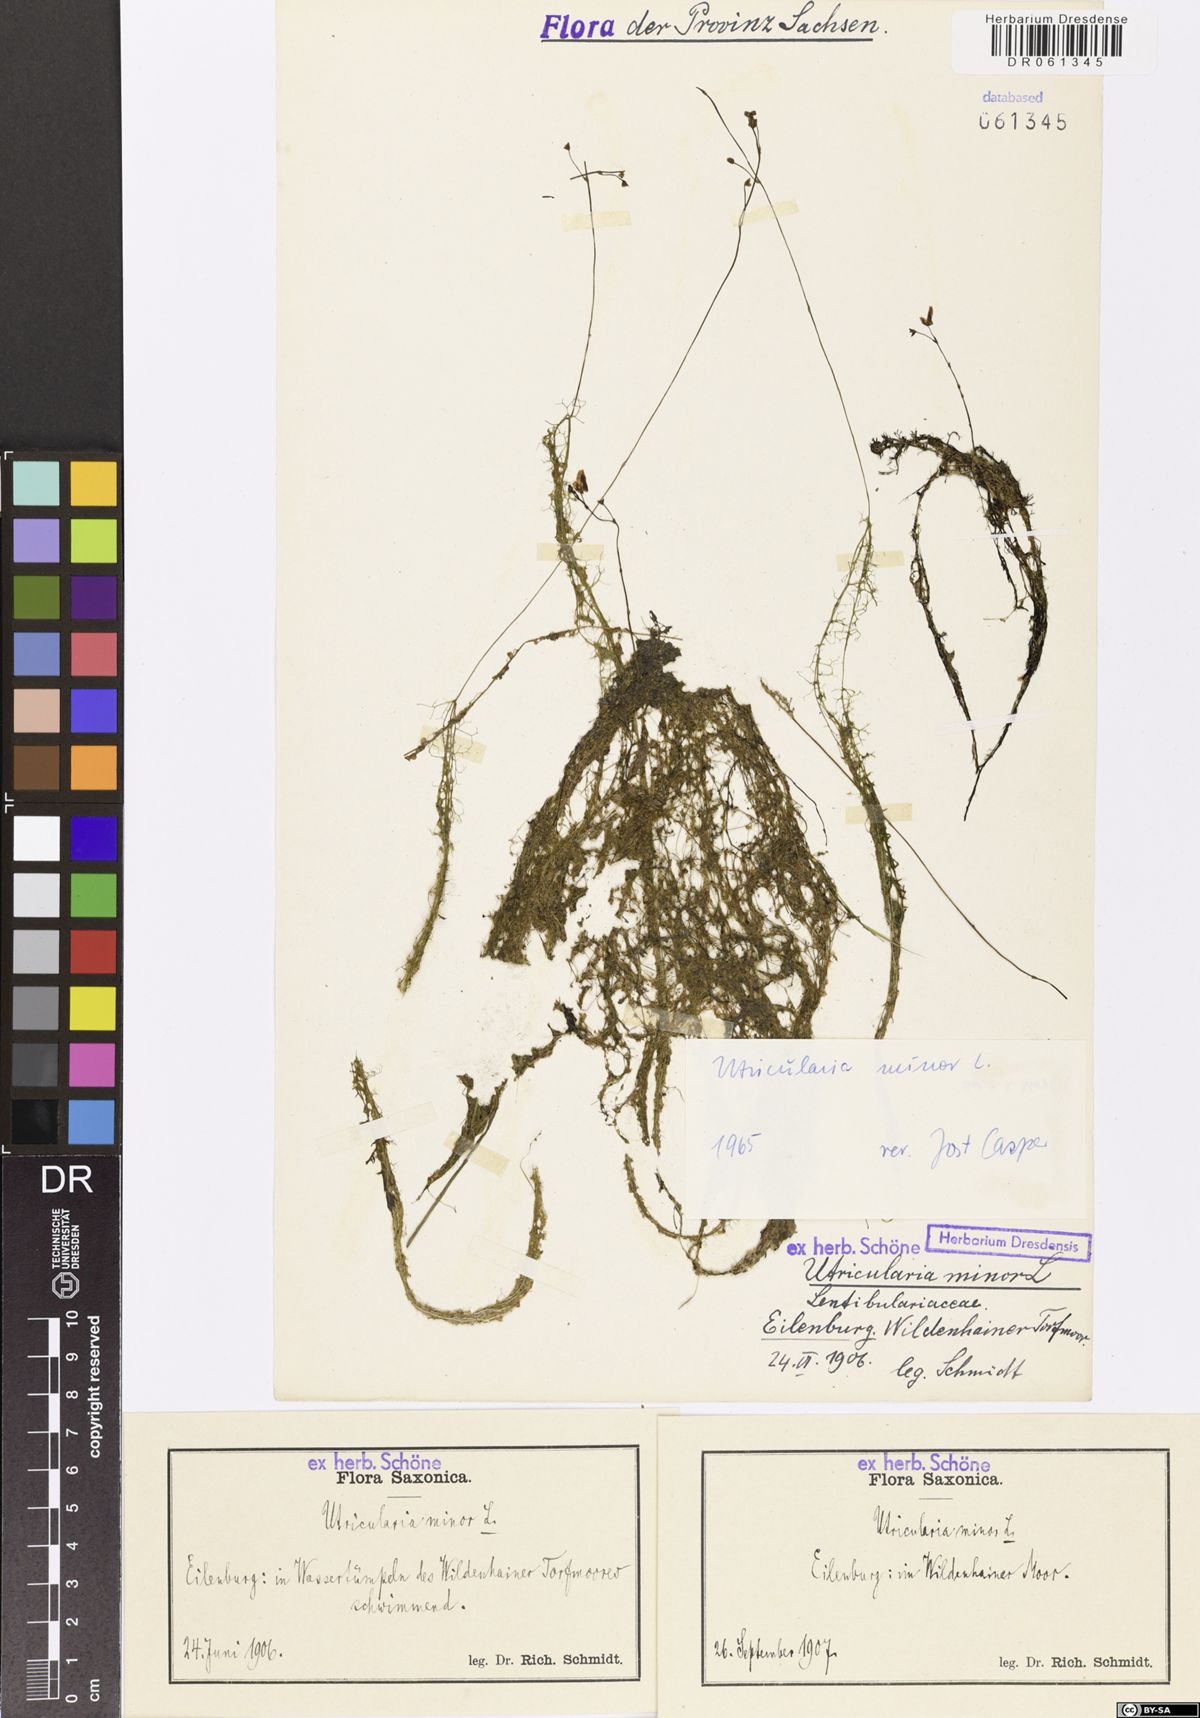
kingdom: Plantae
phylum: Tracheophyta
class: Magnoliopsida
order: Lamiales
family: Lentibulariaceae
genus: Utricularia
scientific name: Utricularia minor
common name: Lesser bladderwort
